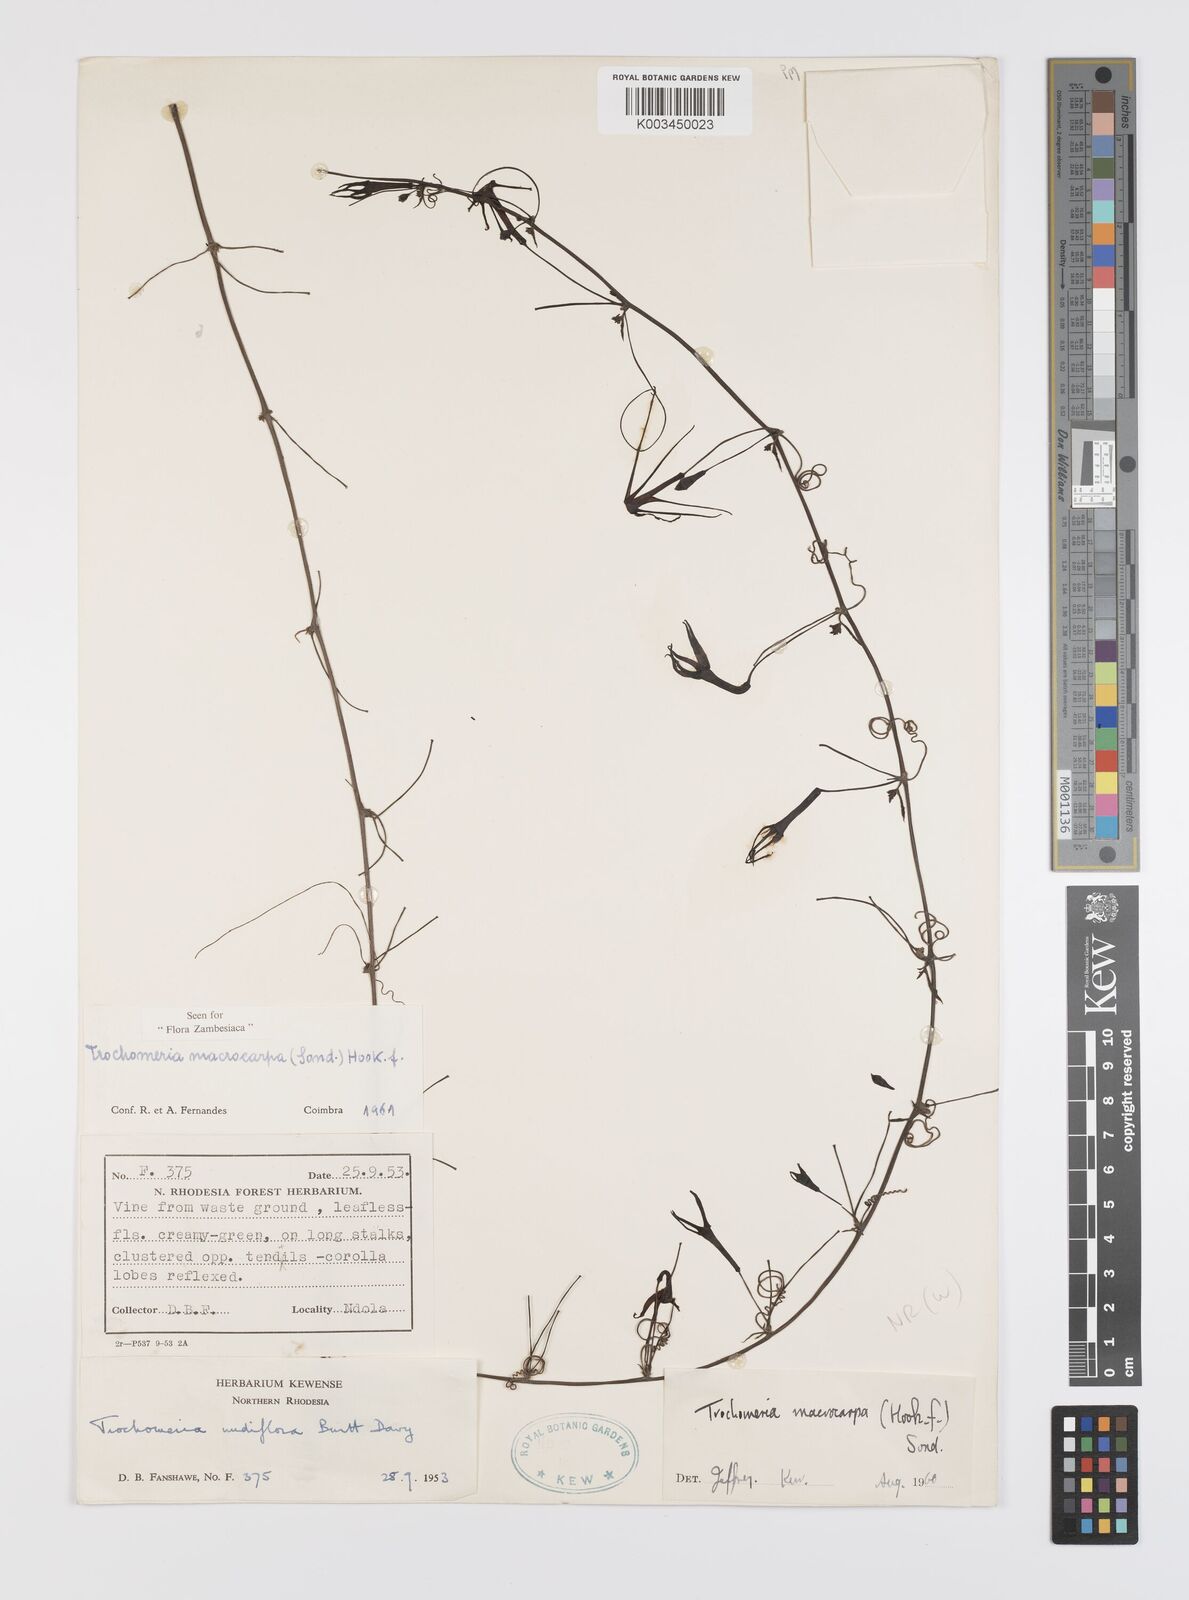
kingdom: Plantae
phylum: Tracheophyta
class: Magnoliopsida
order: Cucurbitales
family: Cucurbitaceae
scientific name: Cucurbitaceae
